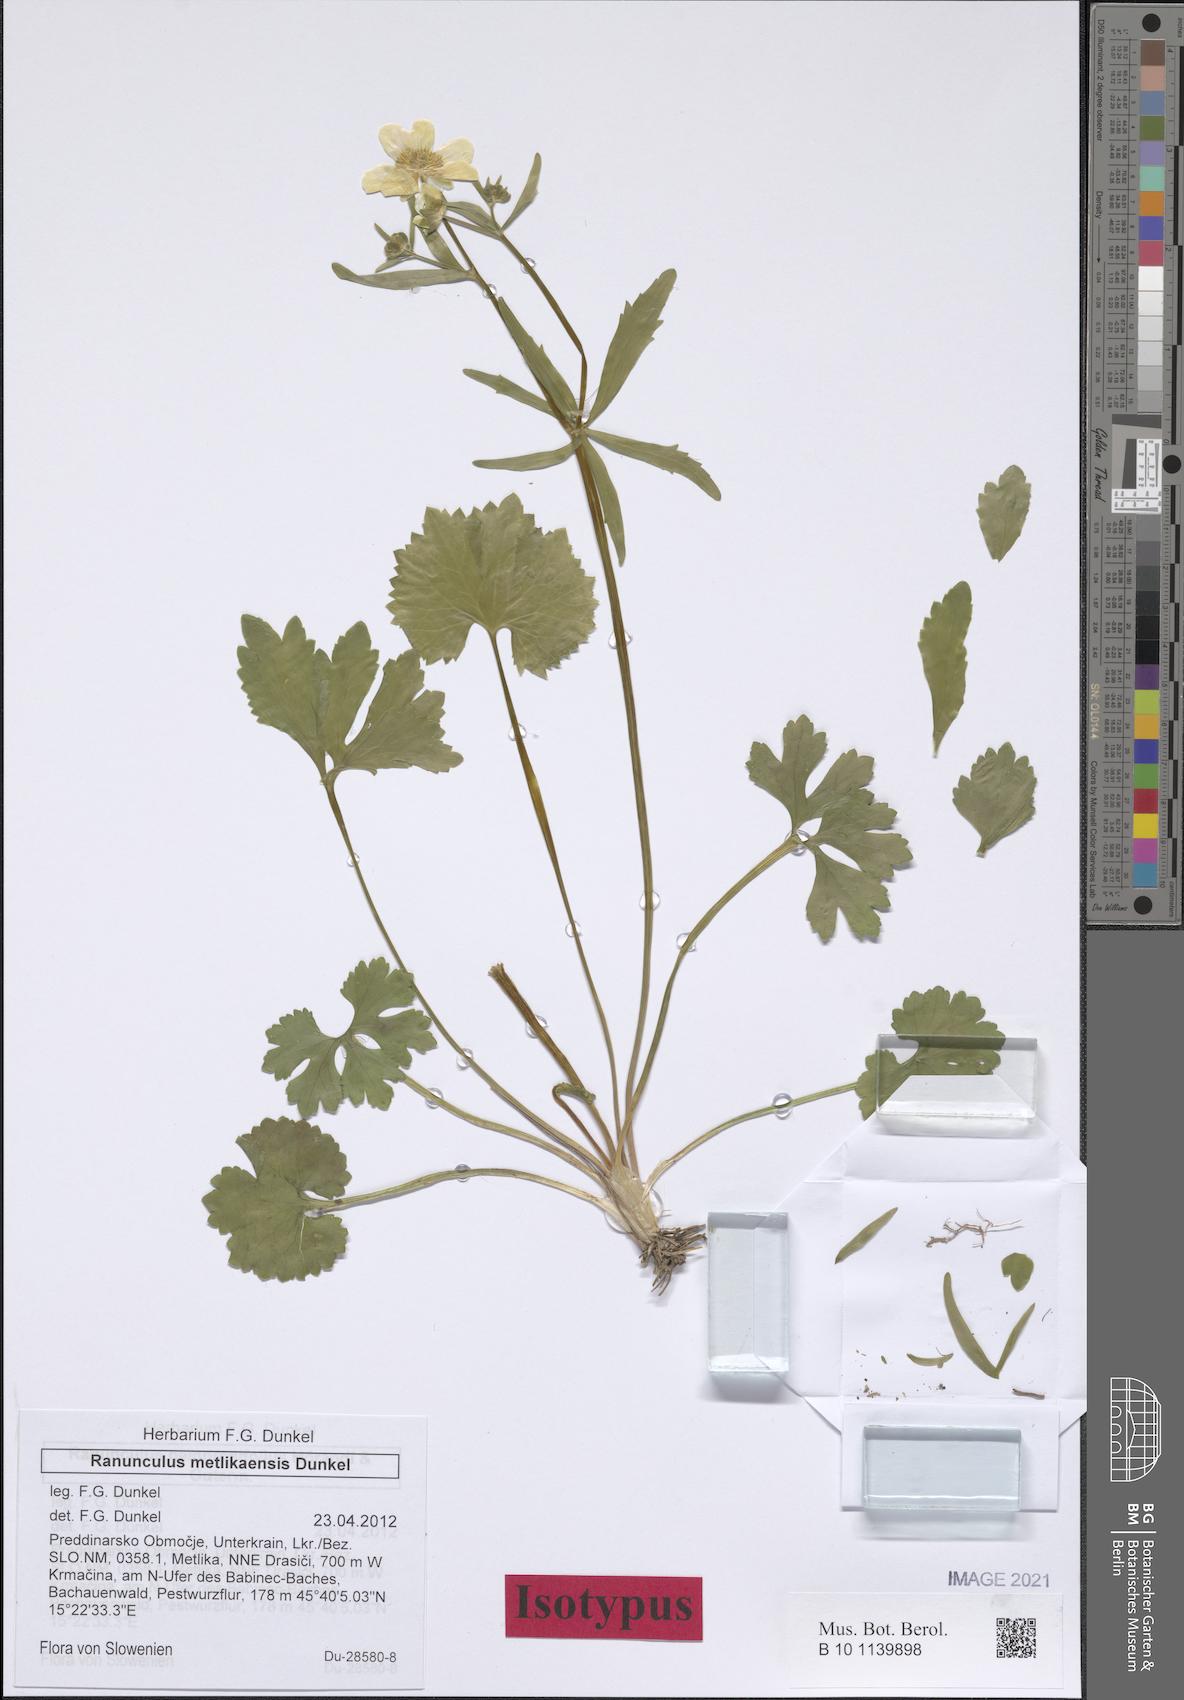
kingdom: Plantae
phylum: Tracheophyta
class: Magnoliopsida
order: Ranunculales
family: Ranunculaceae
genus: Ranunculus
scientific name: Ranunculus metlikaensis
